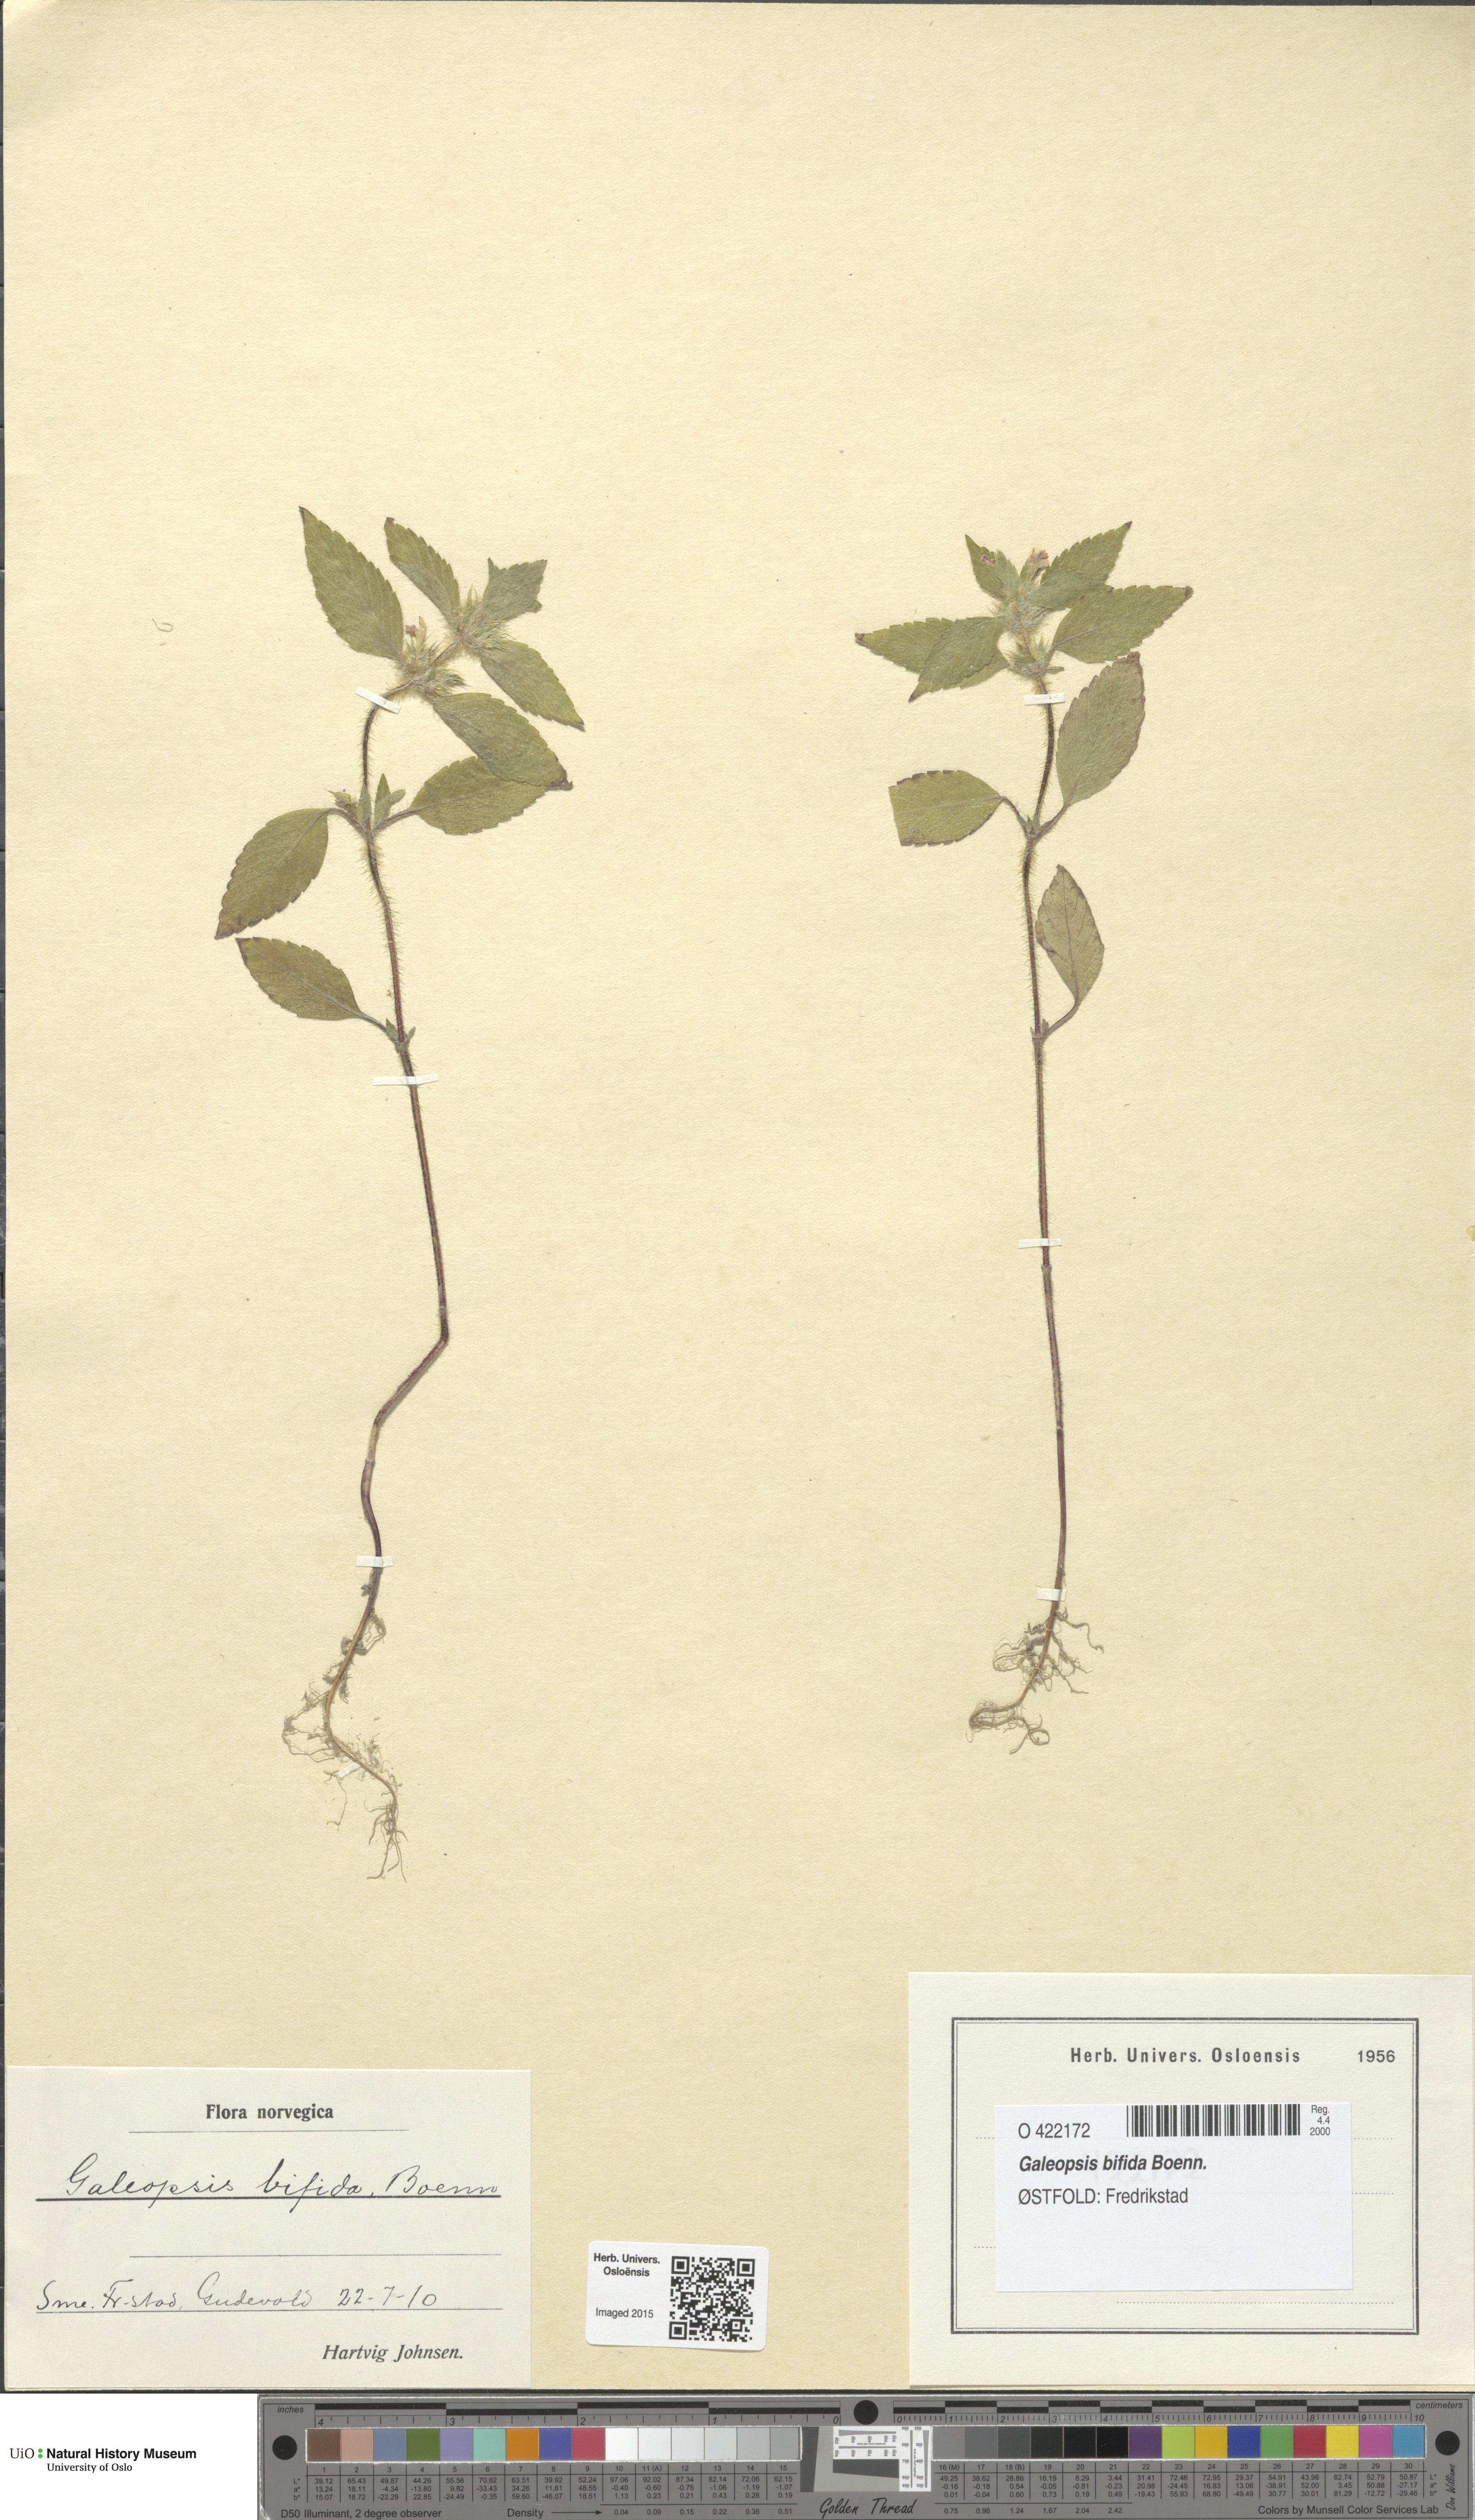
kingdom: Plantae
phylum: Tracheophyta
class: Magnoliopsida
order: Lamiales
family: Lamiaceae
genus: Galeopsis
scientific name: Galeopsis bifida
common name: Bifid hemp-nettle
